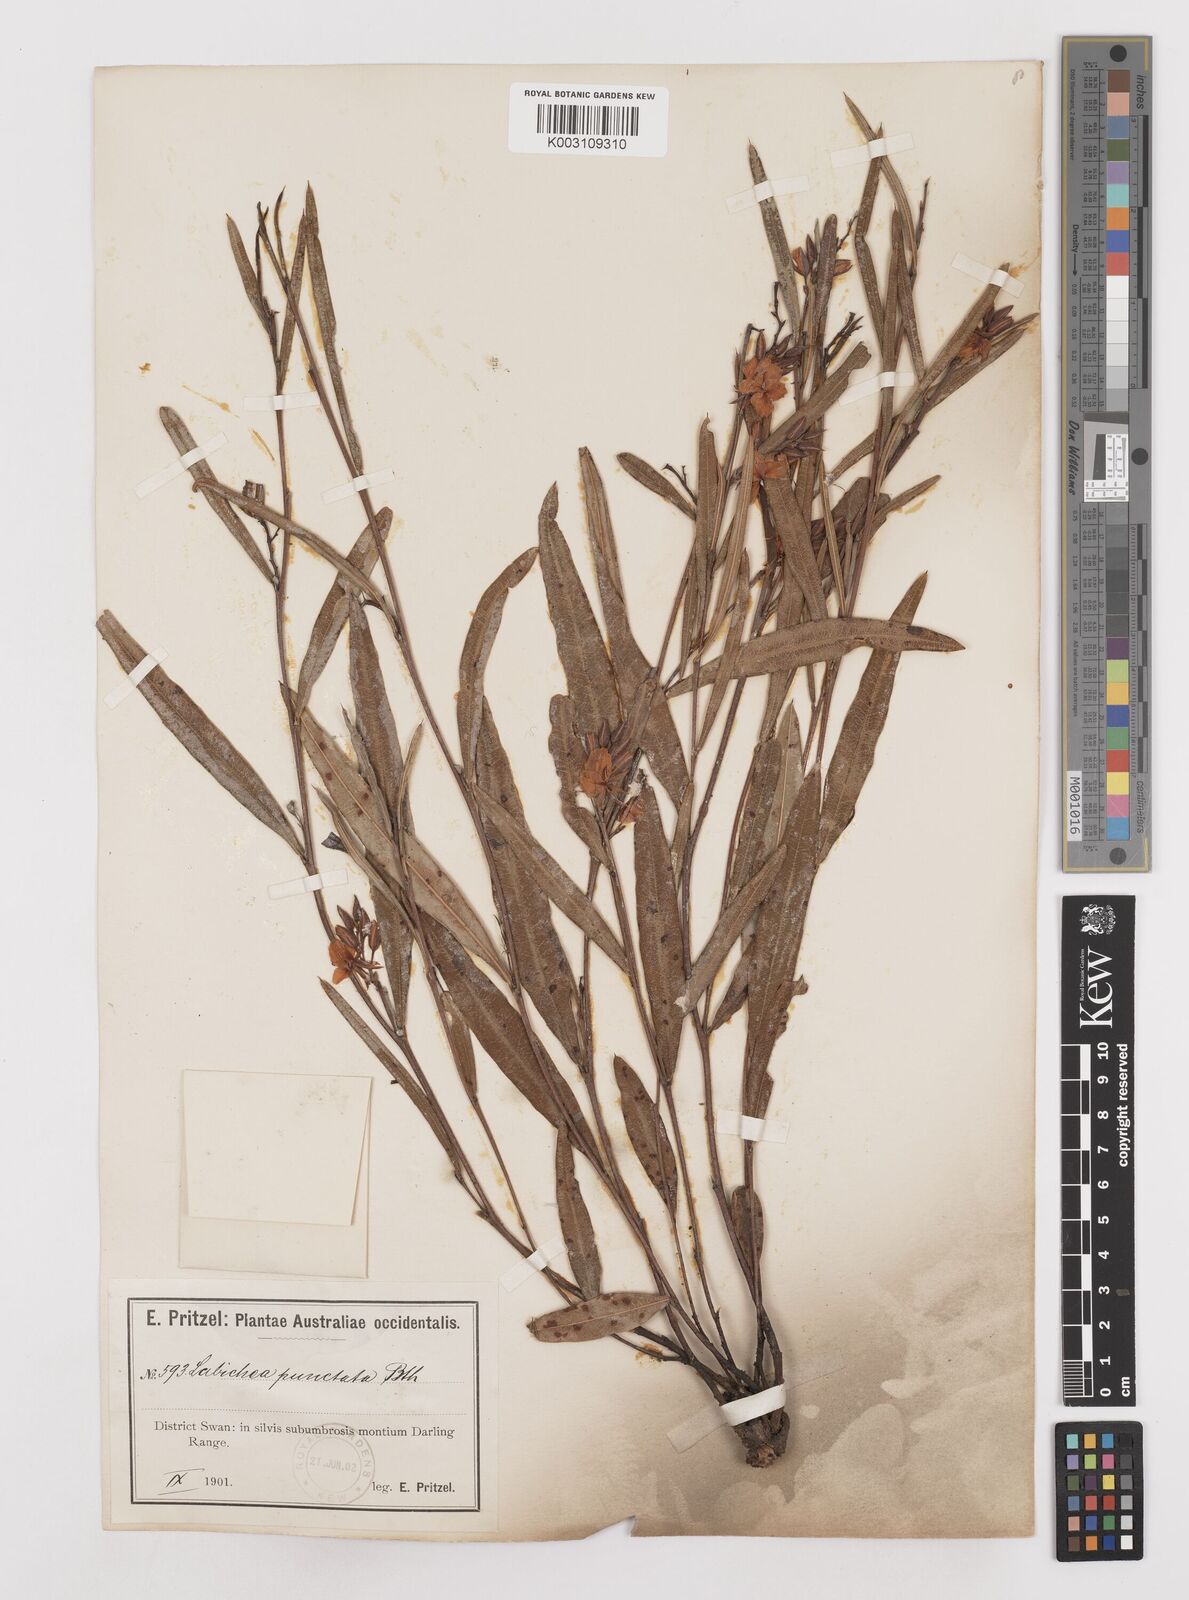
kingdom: Plantae
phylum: Tracheophyta
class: Magnoliopsida
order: Fabales
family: Fabaceae
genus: Labichea
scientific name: Labichea punctata
